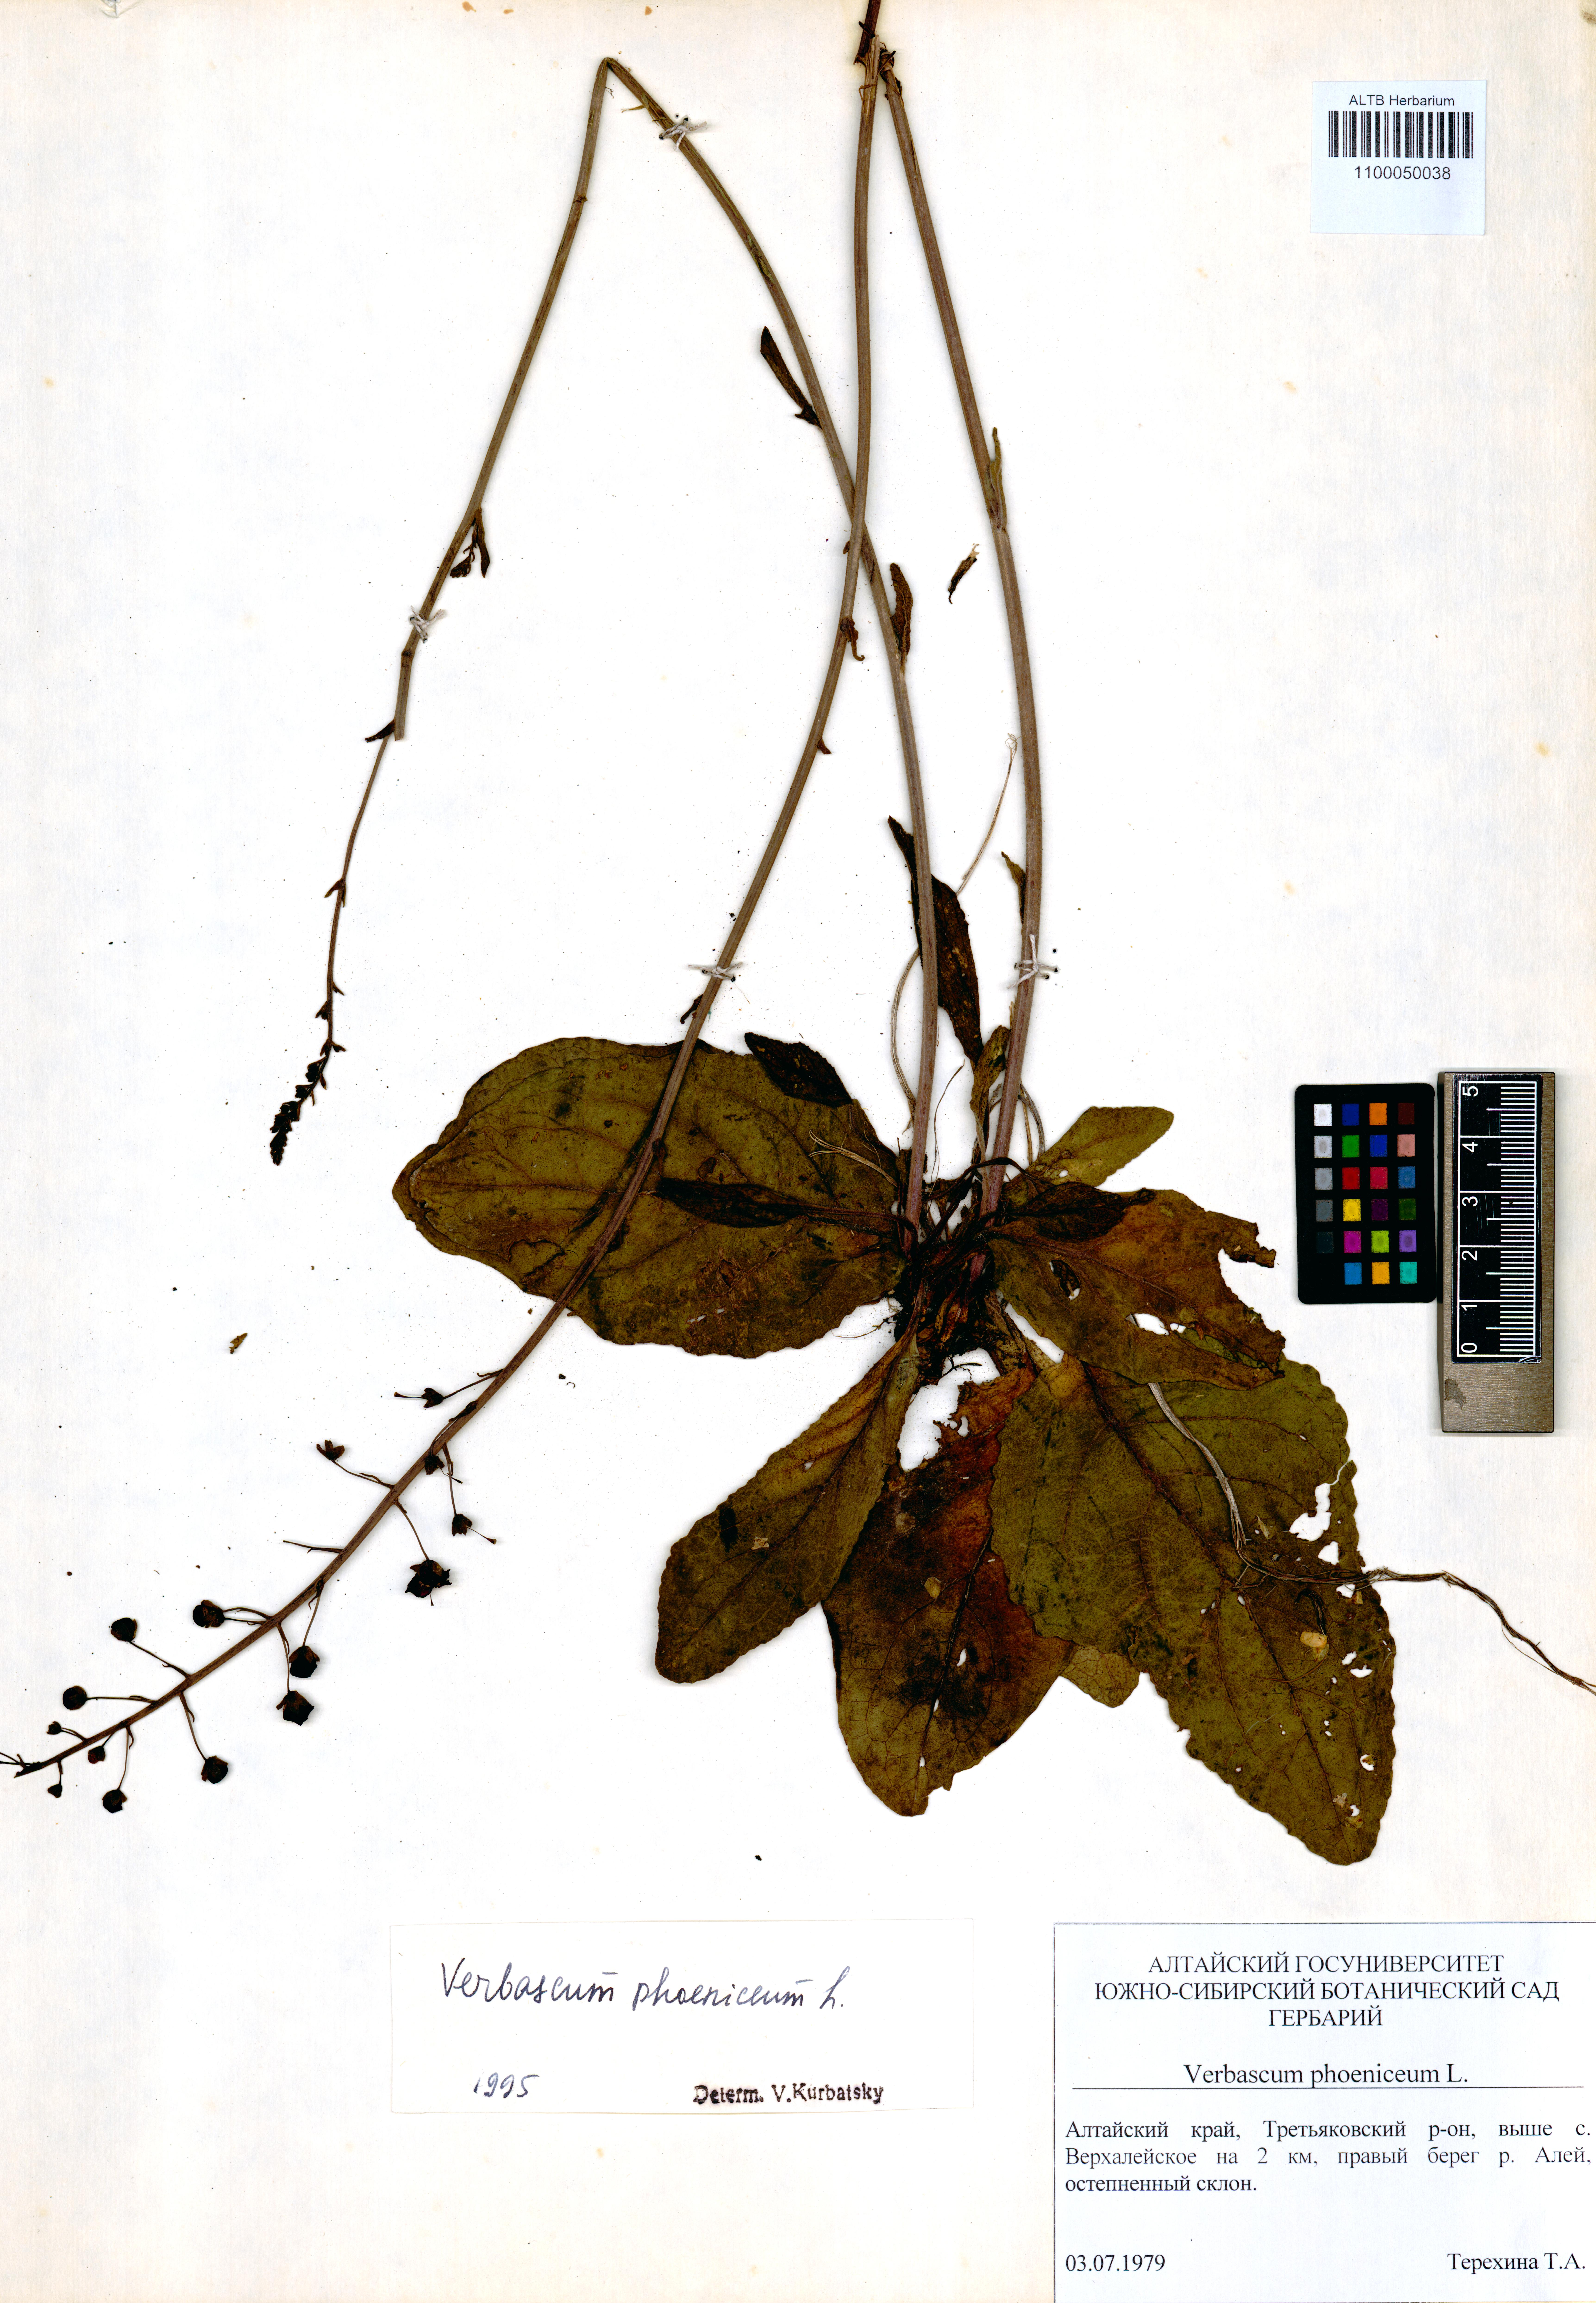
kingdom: Plantae
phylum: Tracheophyta
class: Magnoliopsida
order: Lamiales
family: Scrophulariaceae
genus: Verbascum
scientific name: Verbascum phoeniceum
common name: Purple mullein
